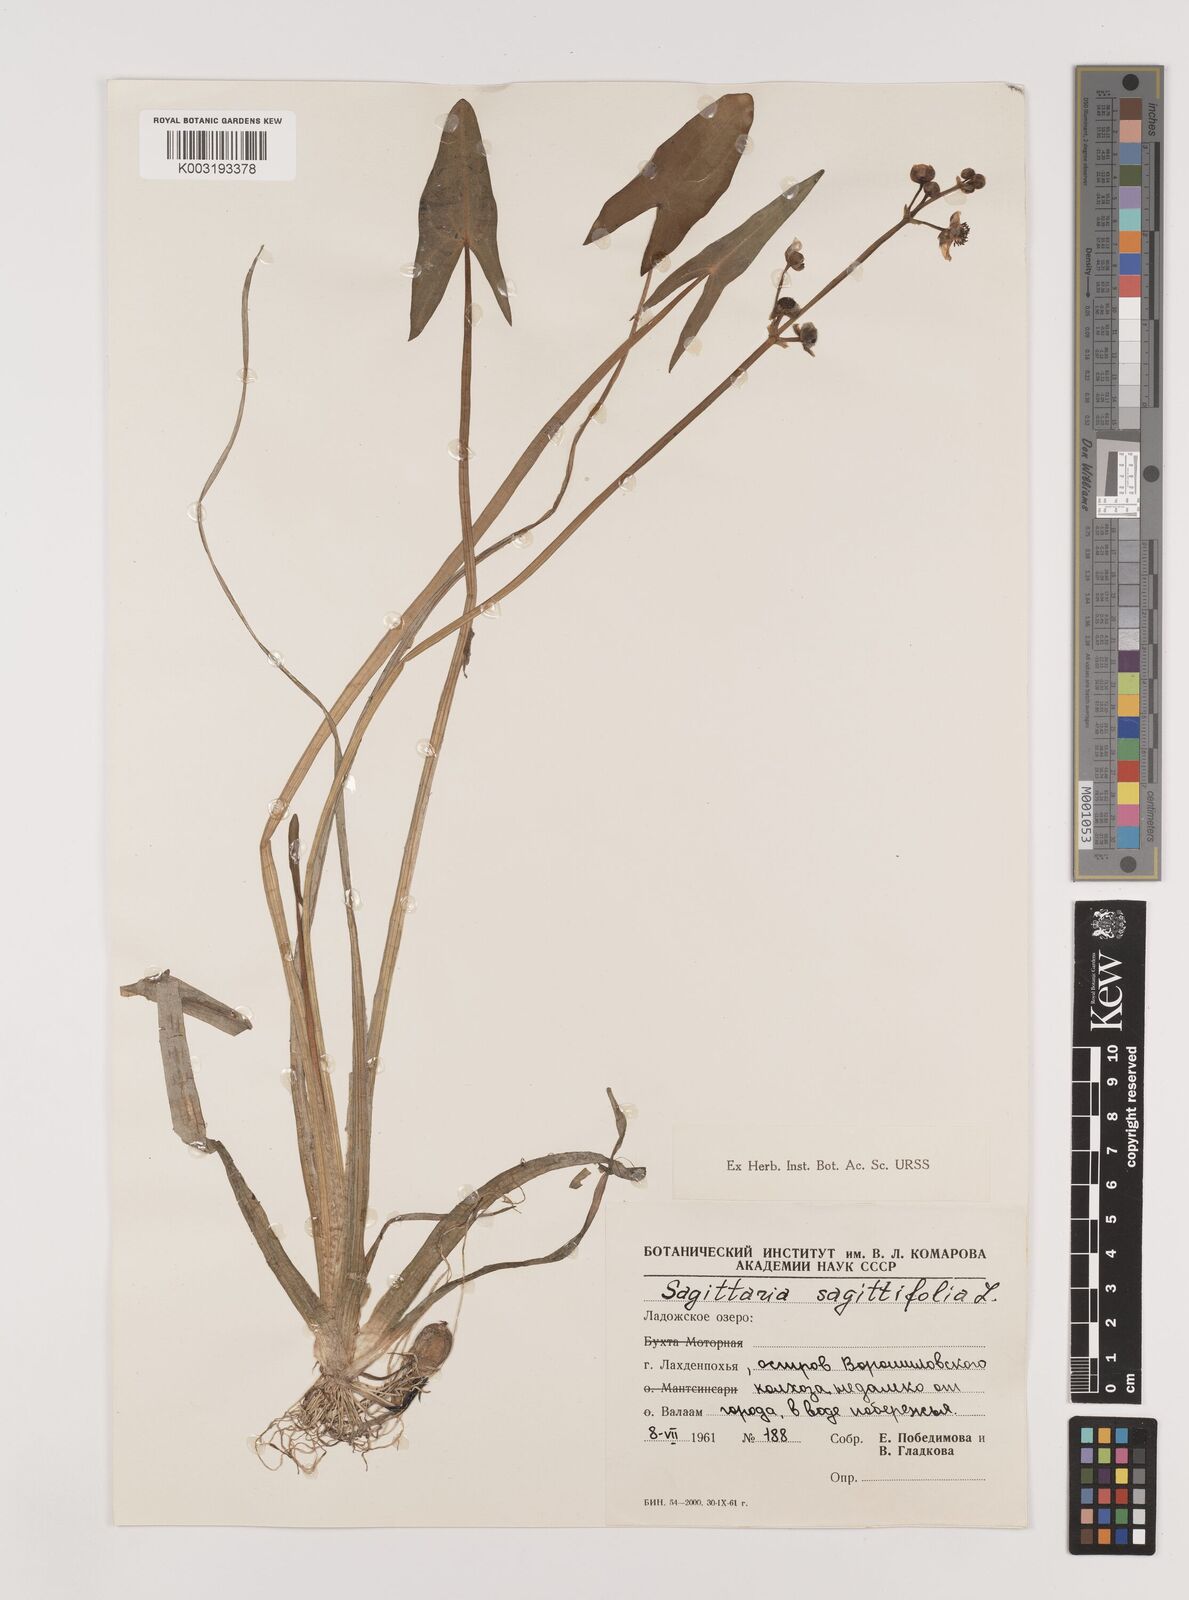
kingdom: Plantae
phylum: Tracheophyta
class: Liliopsida
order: Alismatales
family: Alismataceae
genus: Sagittaria
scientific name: Sagittaria sagittifolia
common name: Arrowhead
